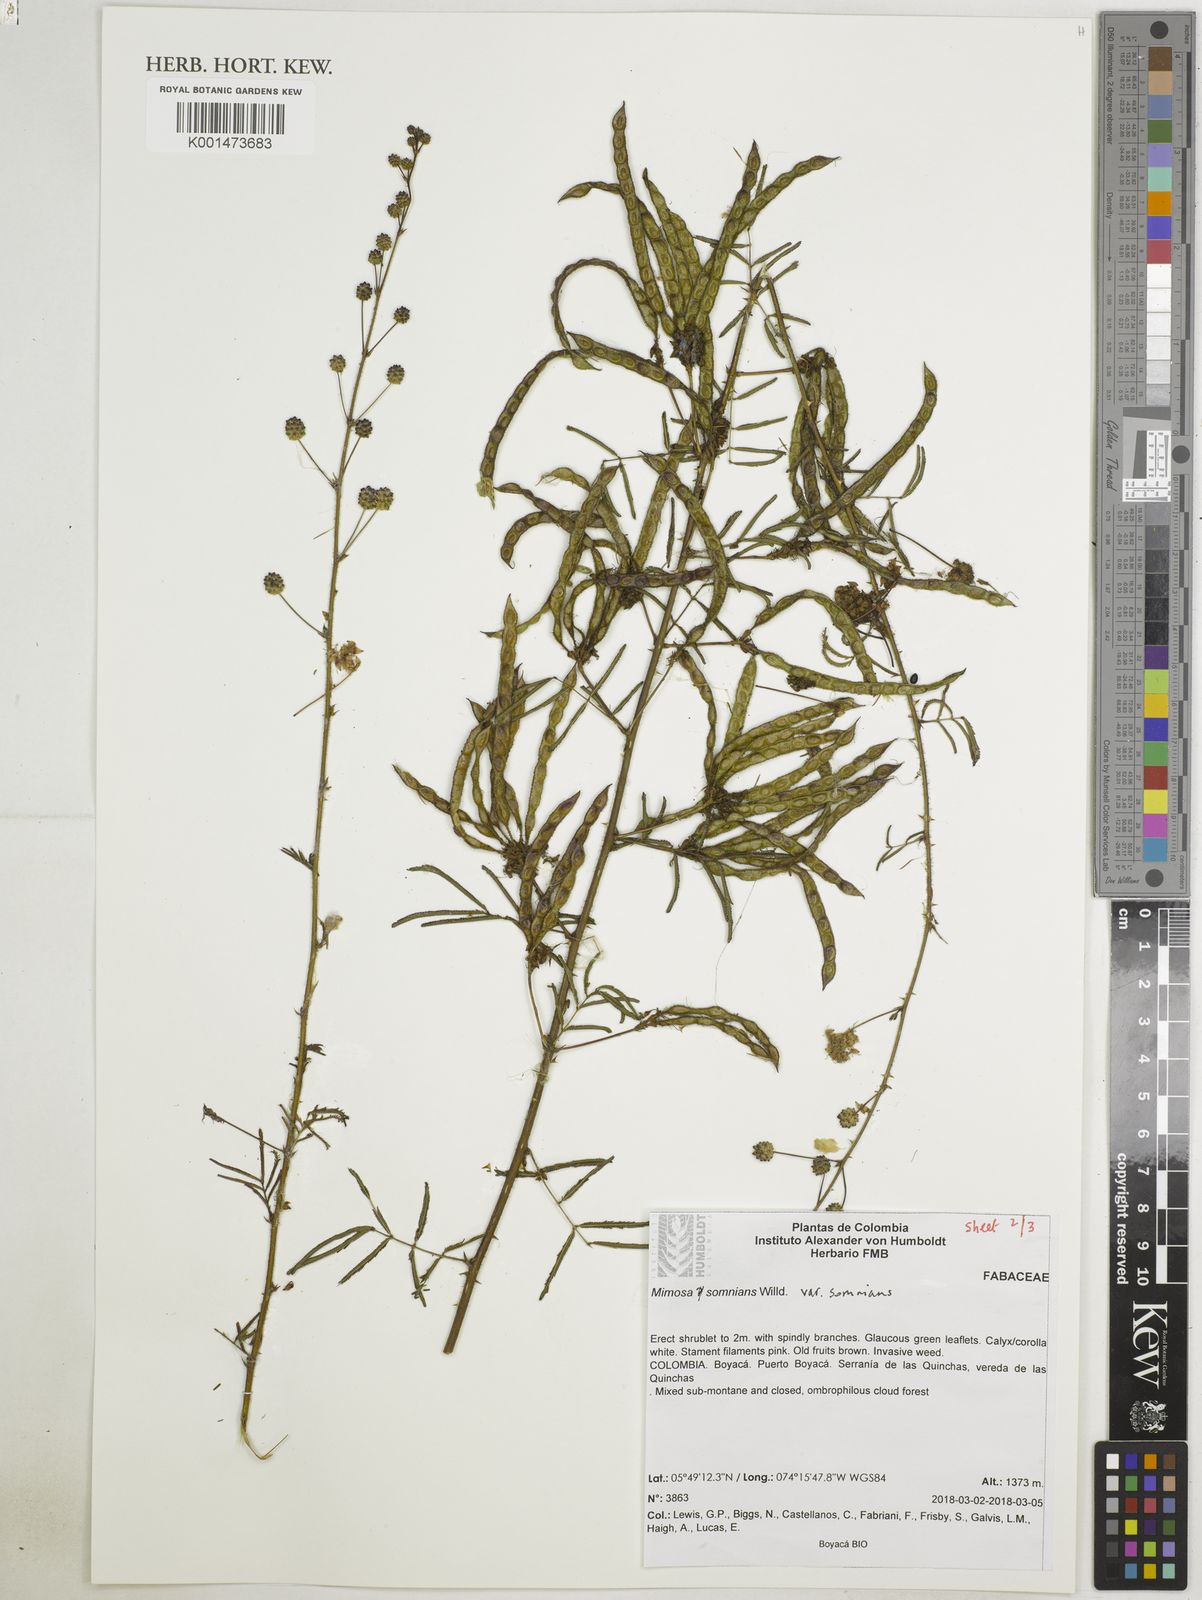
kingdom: Plantae
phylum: Tracheophyta
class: Magnoliopsida
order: Fabales
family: Fabaceae
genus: Mimosa
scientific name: Mimosa somnians
